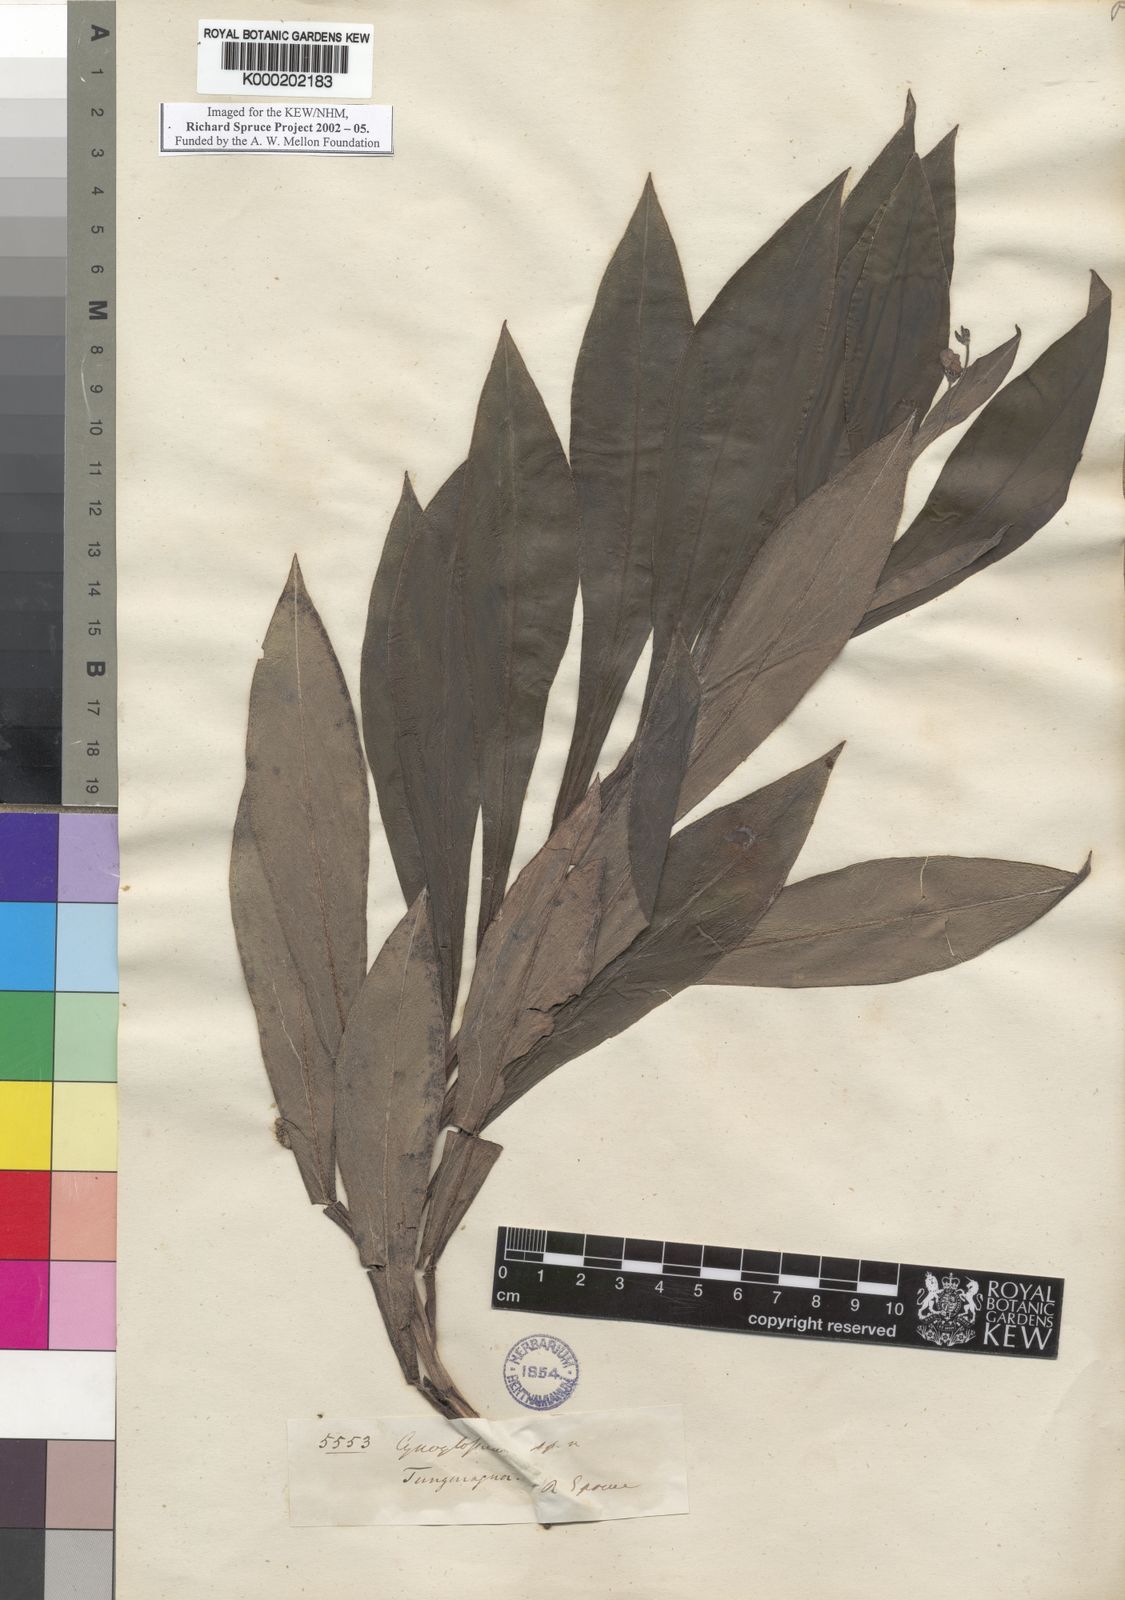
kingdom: Plantae
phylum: Tracheophyta
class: Magnoliopsida
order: Boraginales
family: Boraginaceae
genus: Cynoglossum
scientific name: Cynoglossum
